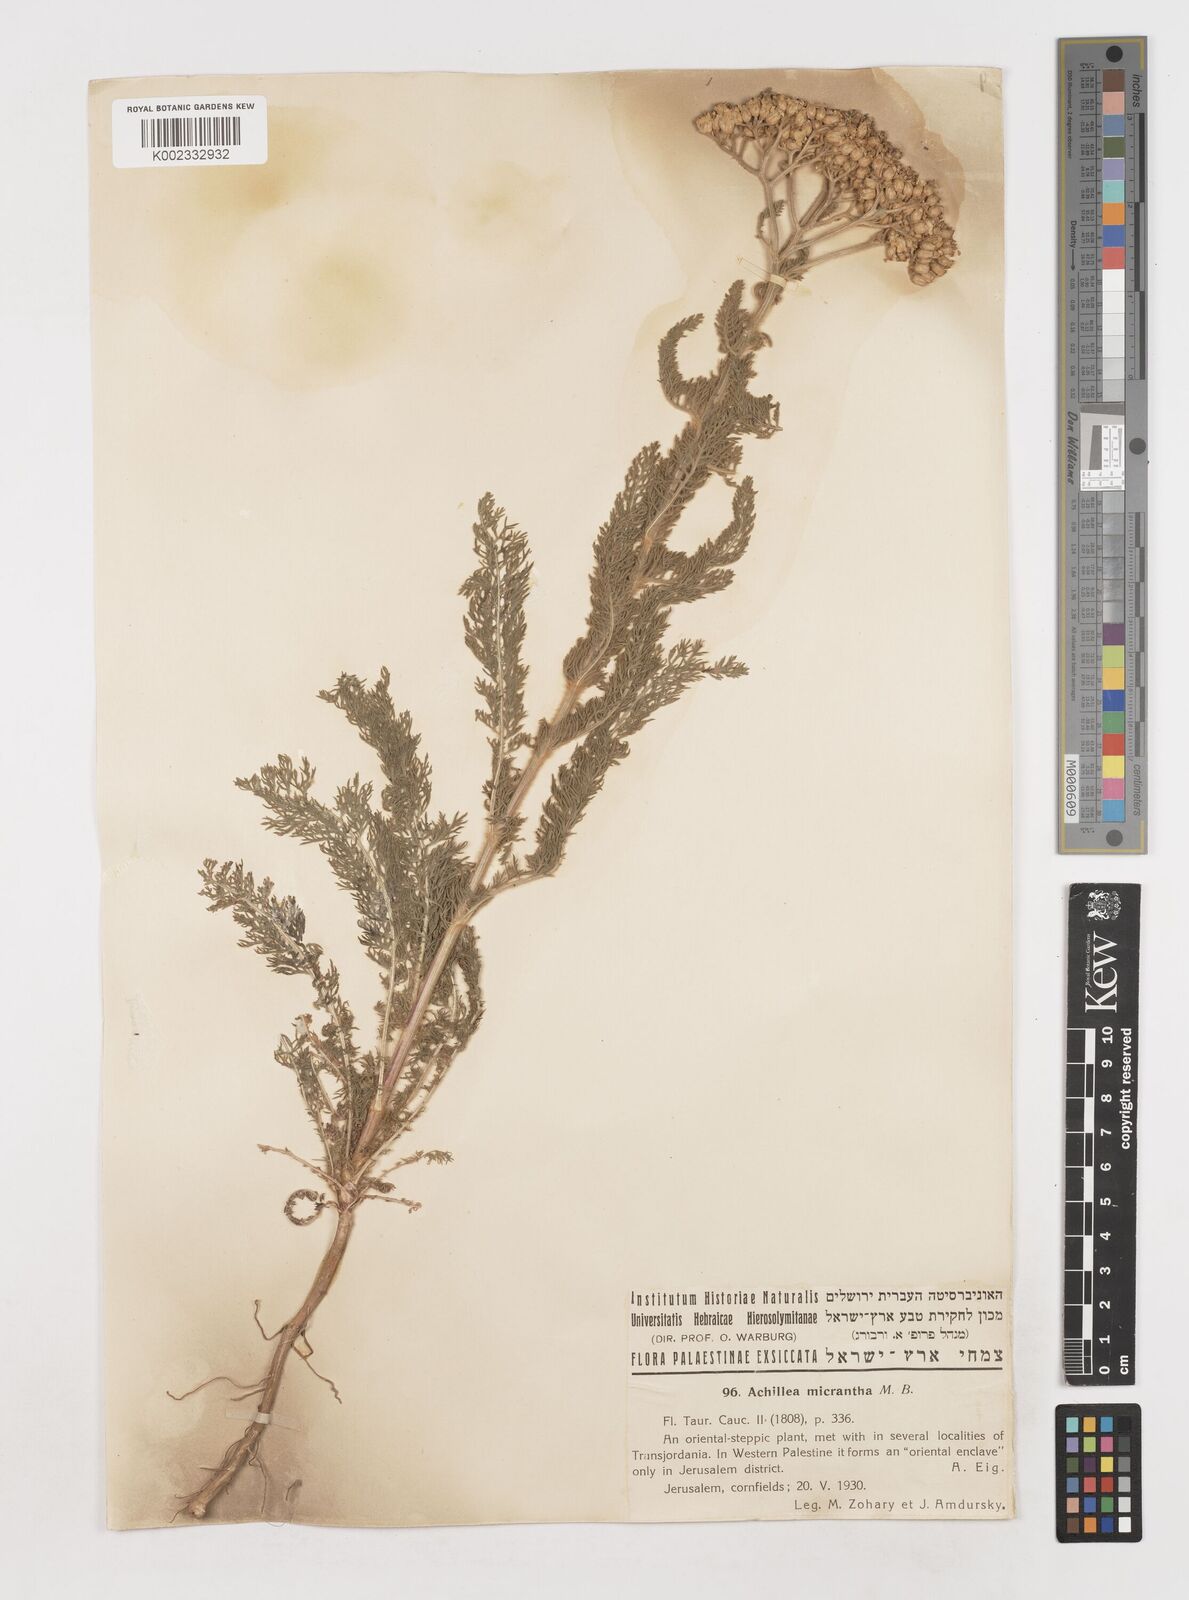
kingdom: Plantae
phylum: Tracheophyta
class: Magnoliopsida
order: Asterales
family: Asteraceae
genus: Achillea
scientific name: Achillea arabica
